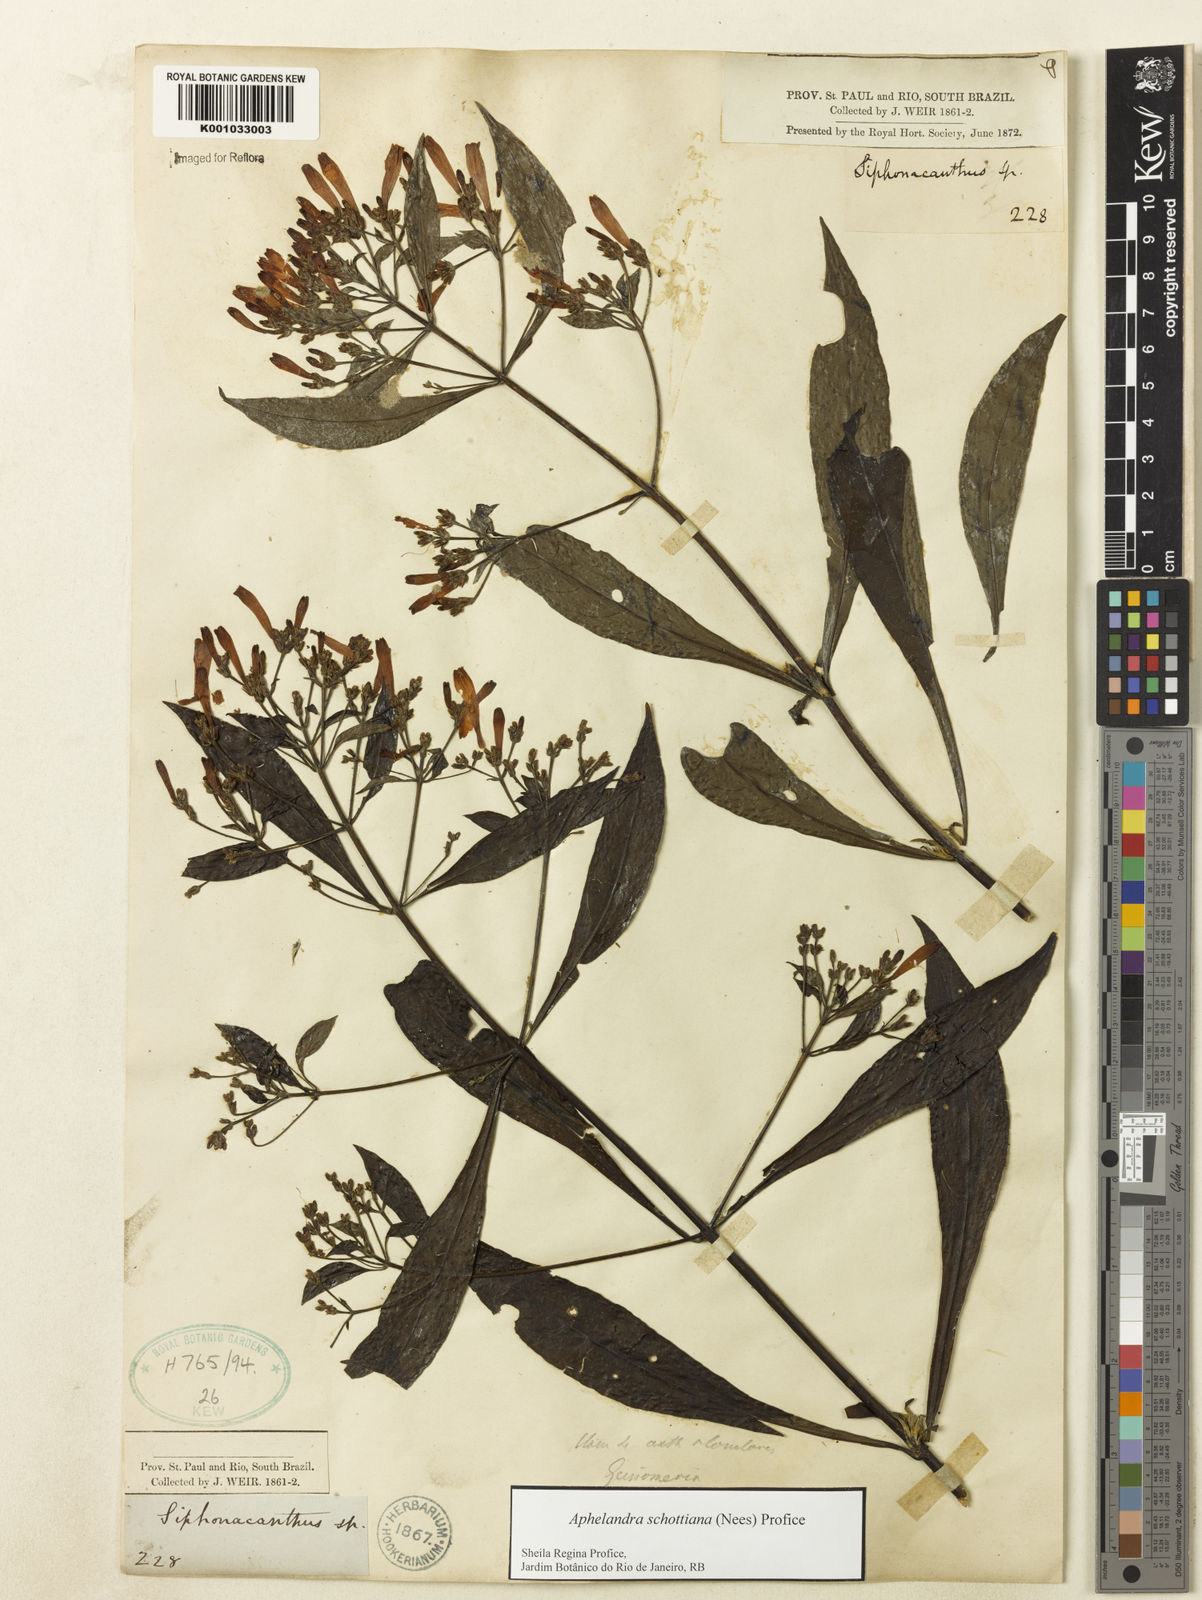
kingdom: Plantae
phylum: Tracheophyta
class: Magnoliopsida
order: Lamiales
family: Acanthaceae
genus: Aphelandra
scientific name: Aphelandra schottiana
